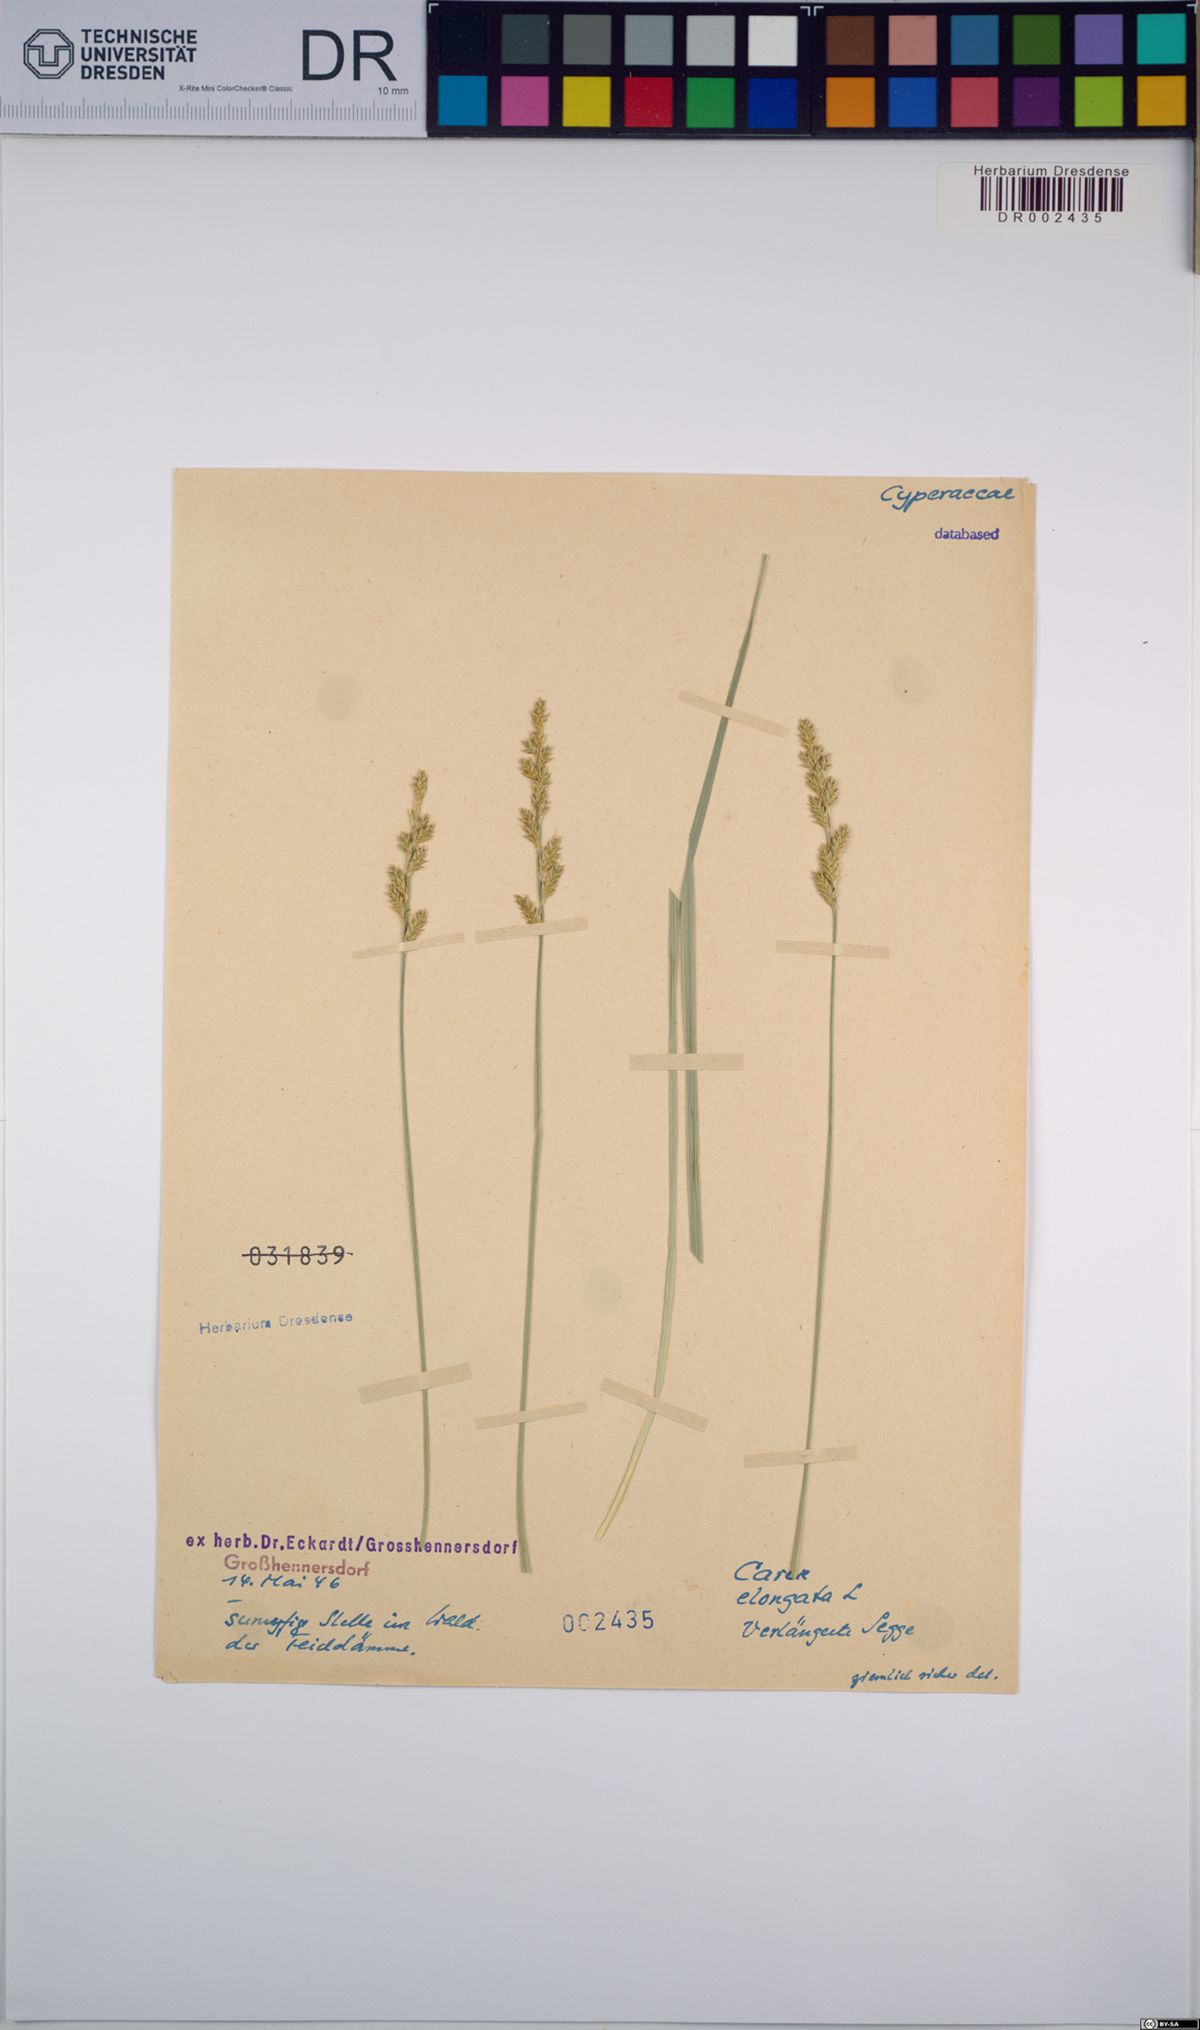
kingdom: Plantae
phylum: Tracheophyta
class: Liliopsida
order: Poales
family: Cyperaceae
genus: Carex
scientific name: Carex elongata
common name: Elongated sedge
